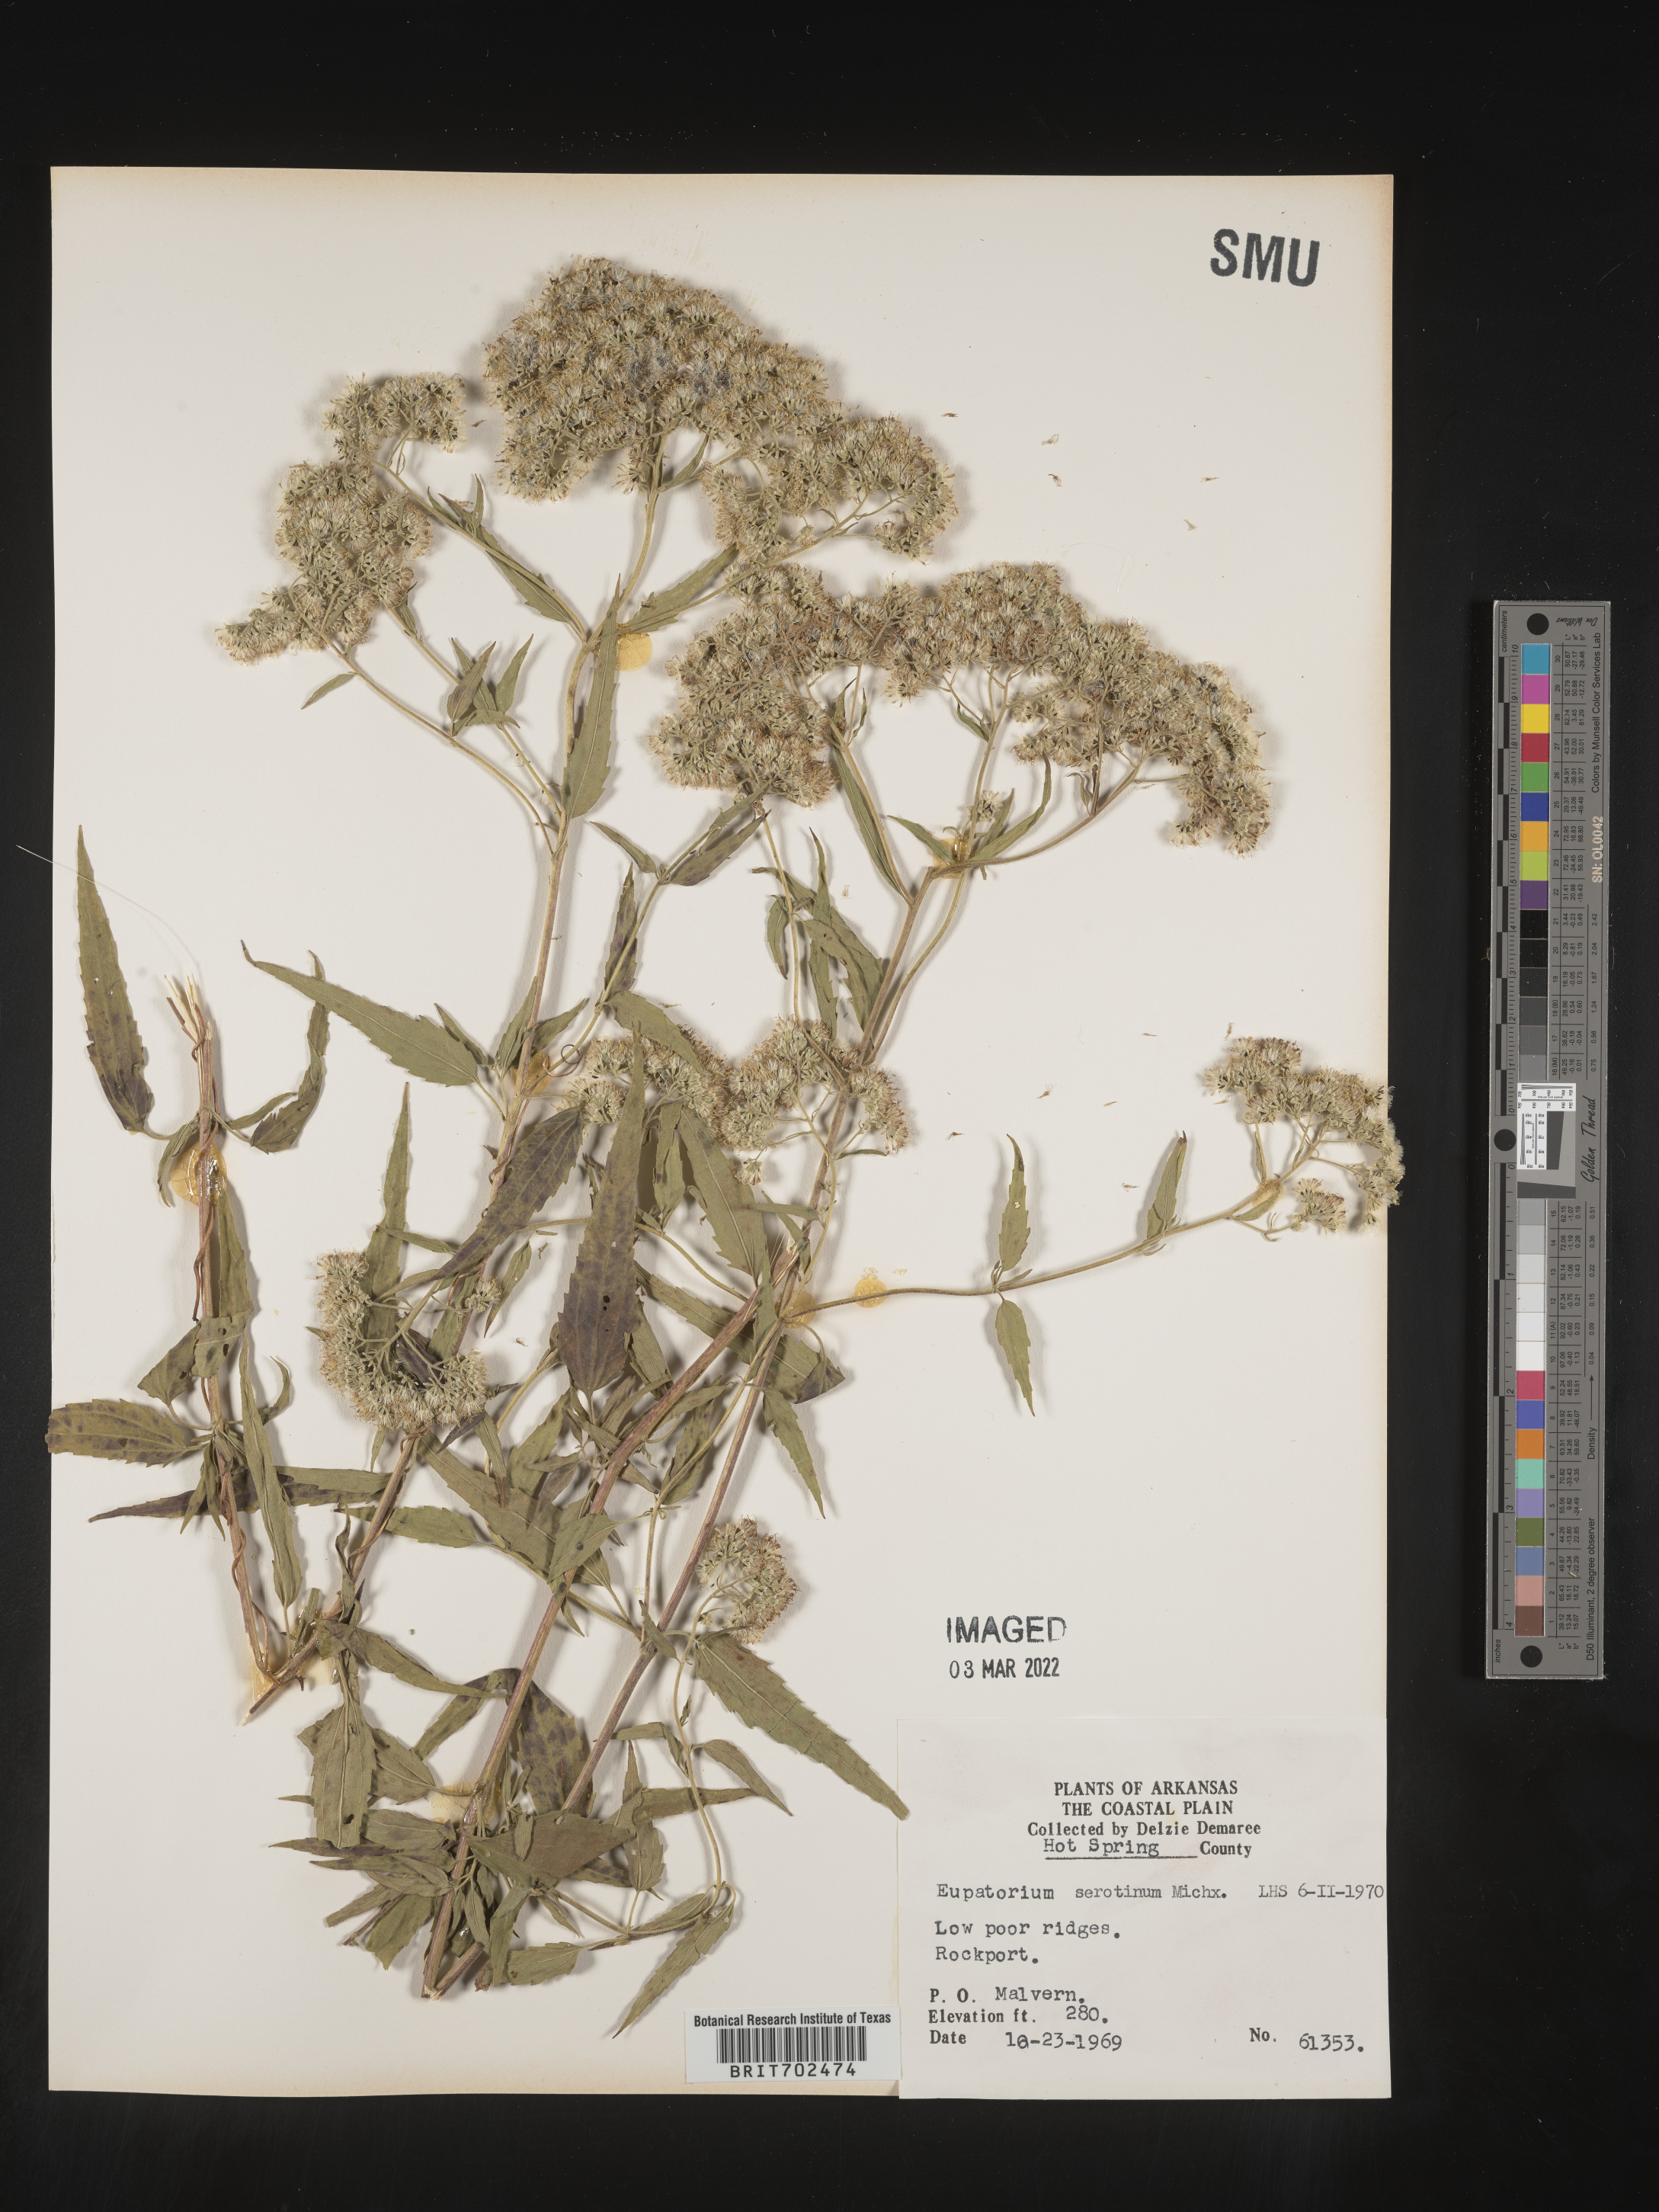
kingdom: Plantae
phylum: Tracheophyta
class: Magnoliopsida
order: Asterales
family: Asteraceae
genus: Eupatorium
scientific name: Eupatorium serotinum
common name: Late boneset
